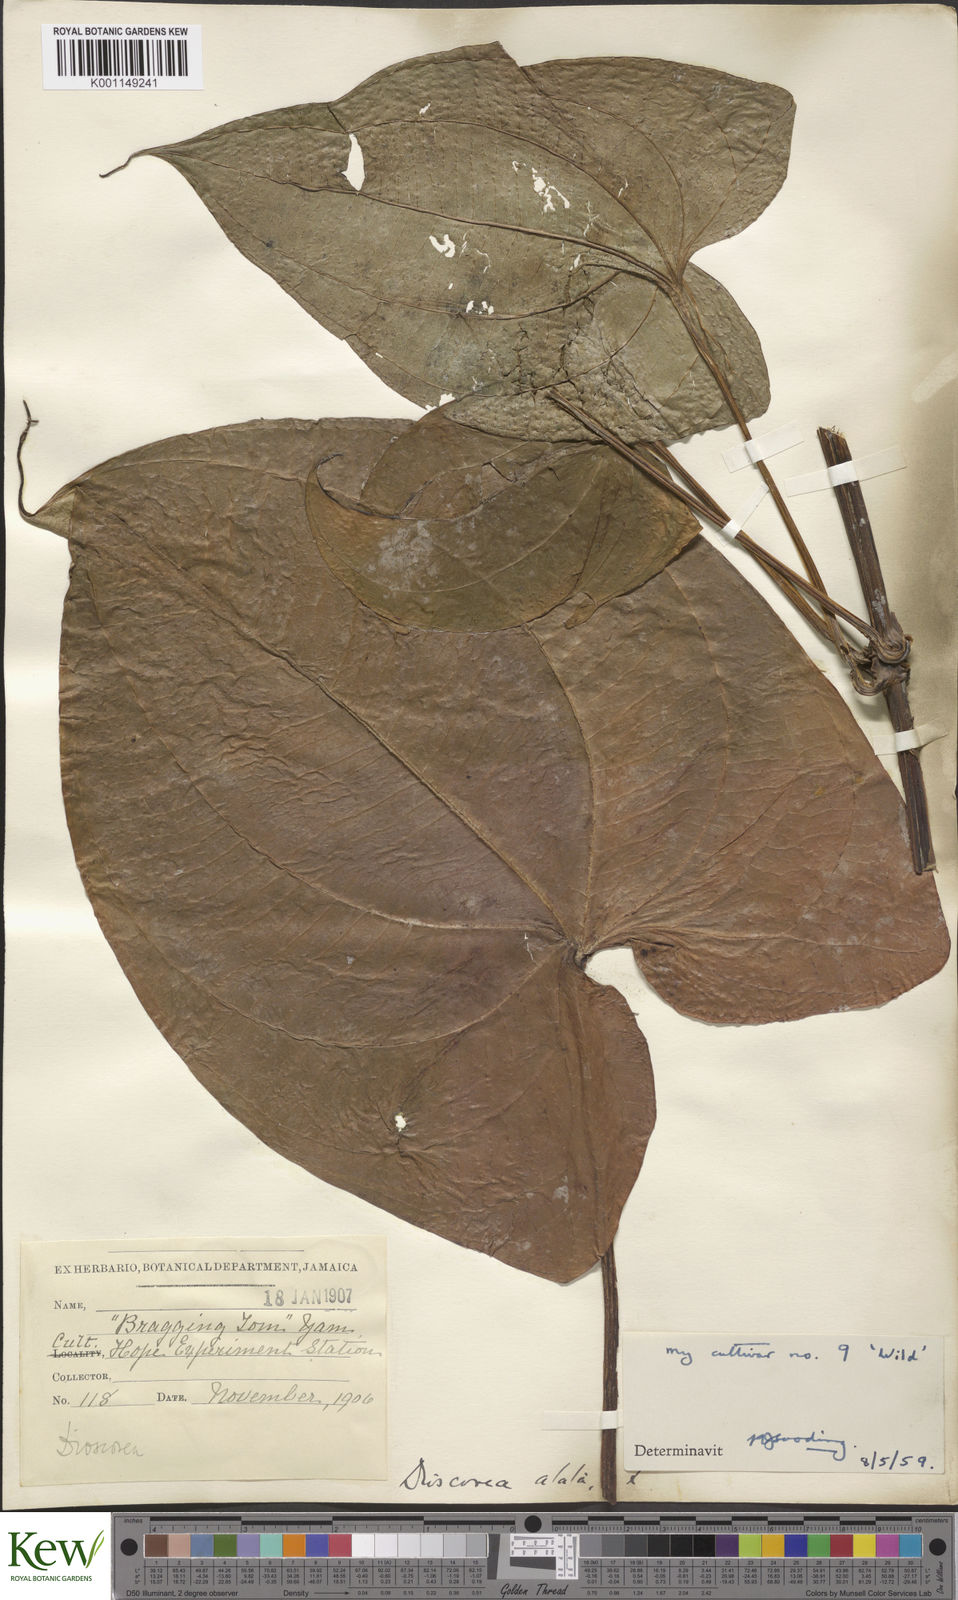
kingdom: Plantae
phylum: Tracheophyta
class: Liliopsida
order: Dioscoreales
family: Dioscoreaceae
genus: Dioscorea
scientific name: Dioscorea alata
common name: Water yam
